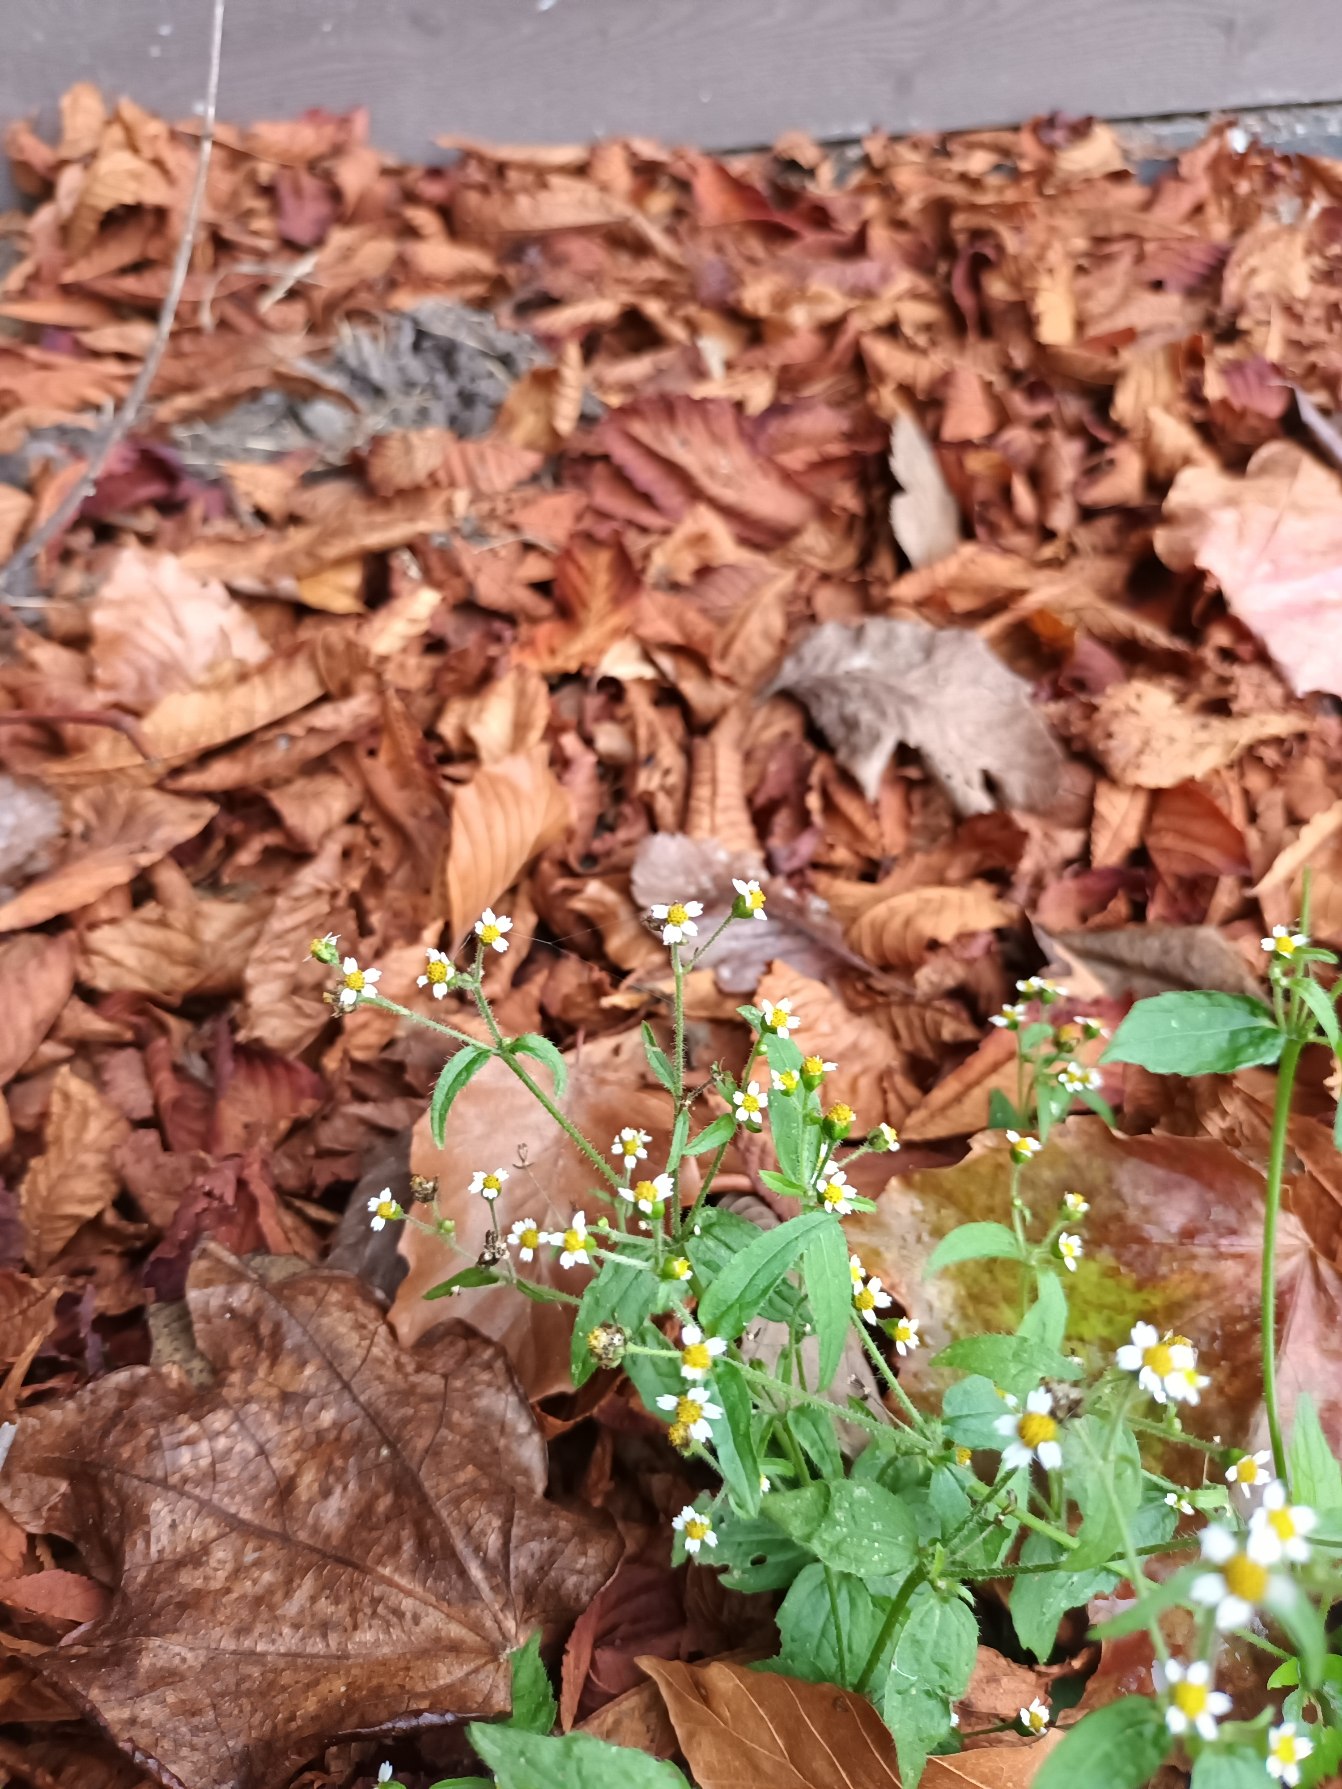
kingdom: Plantae
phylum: Tracheophyta
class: Magnoliopsida
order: Asterales
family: Asteraceae
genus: Galinsoga
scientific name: Galinsoga quadriradiata
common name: Kirtel-kortstråle
